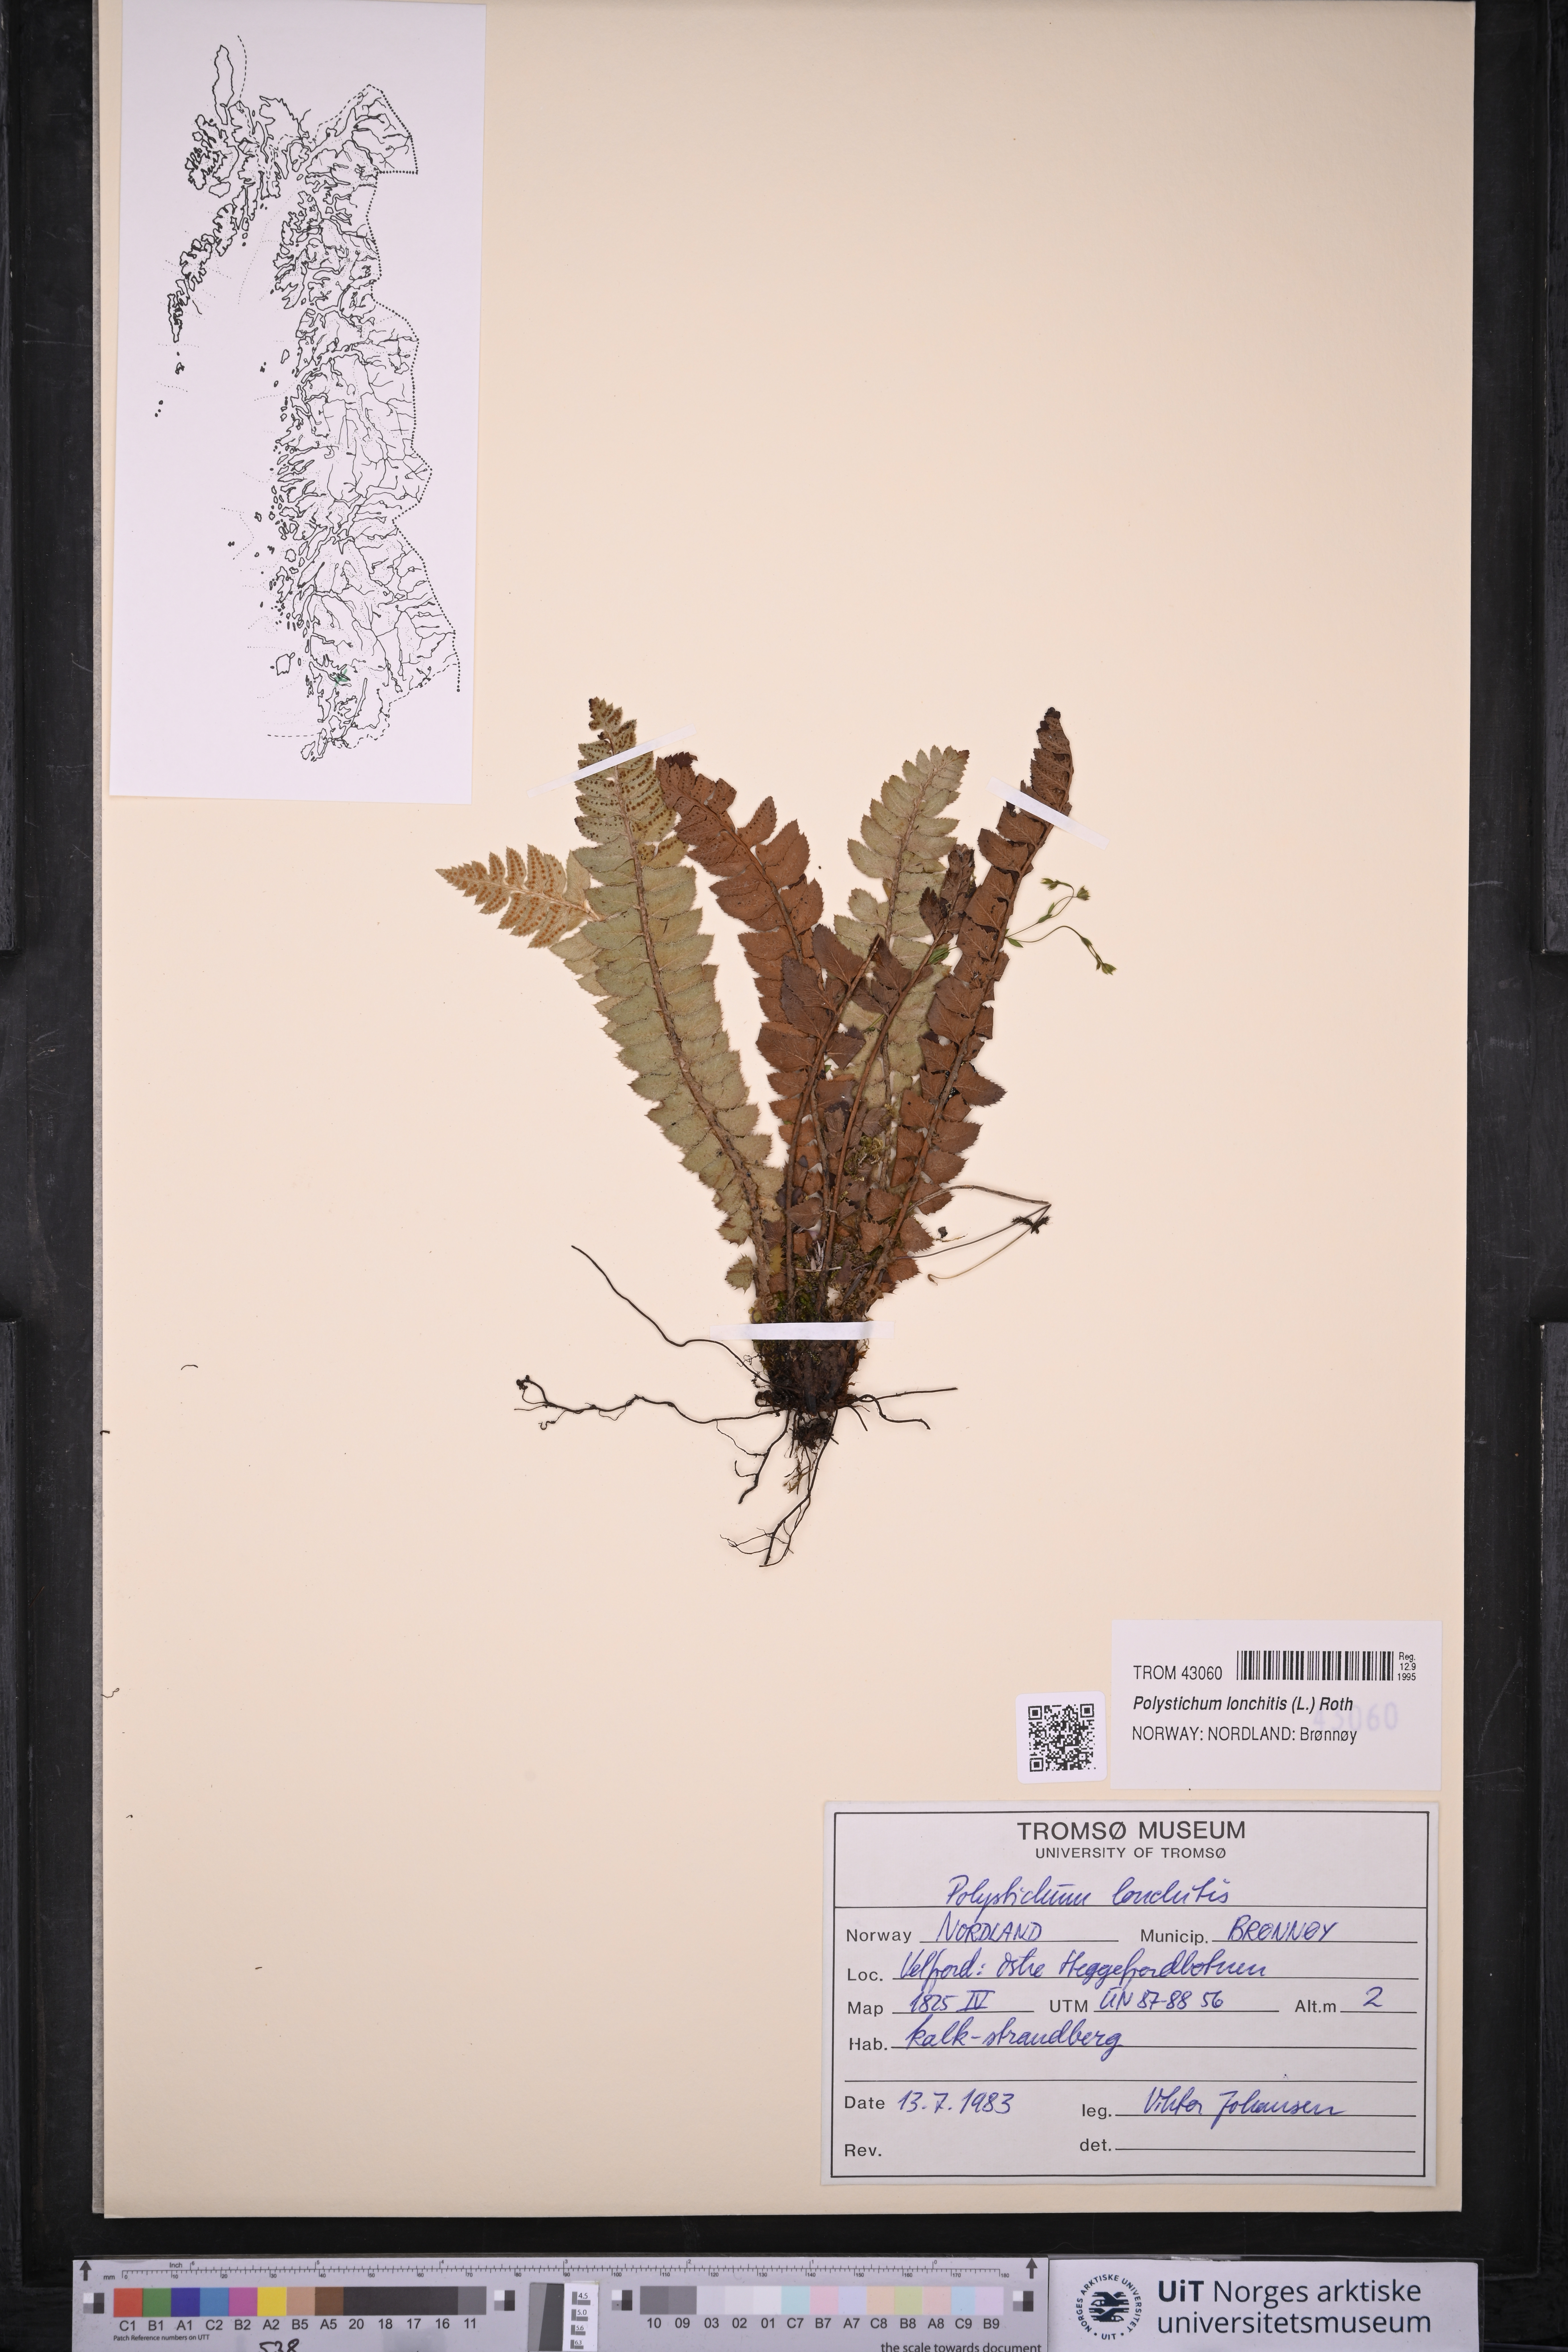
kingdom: Plantae
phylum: Tracheophyta
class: Polypodiopsida
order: Polypodiales
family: Dryopteridaceae
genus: Polystichum
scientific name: Polystichum lonchitis
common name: Holly fern
